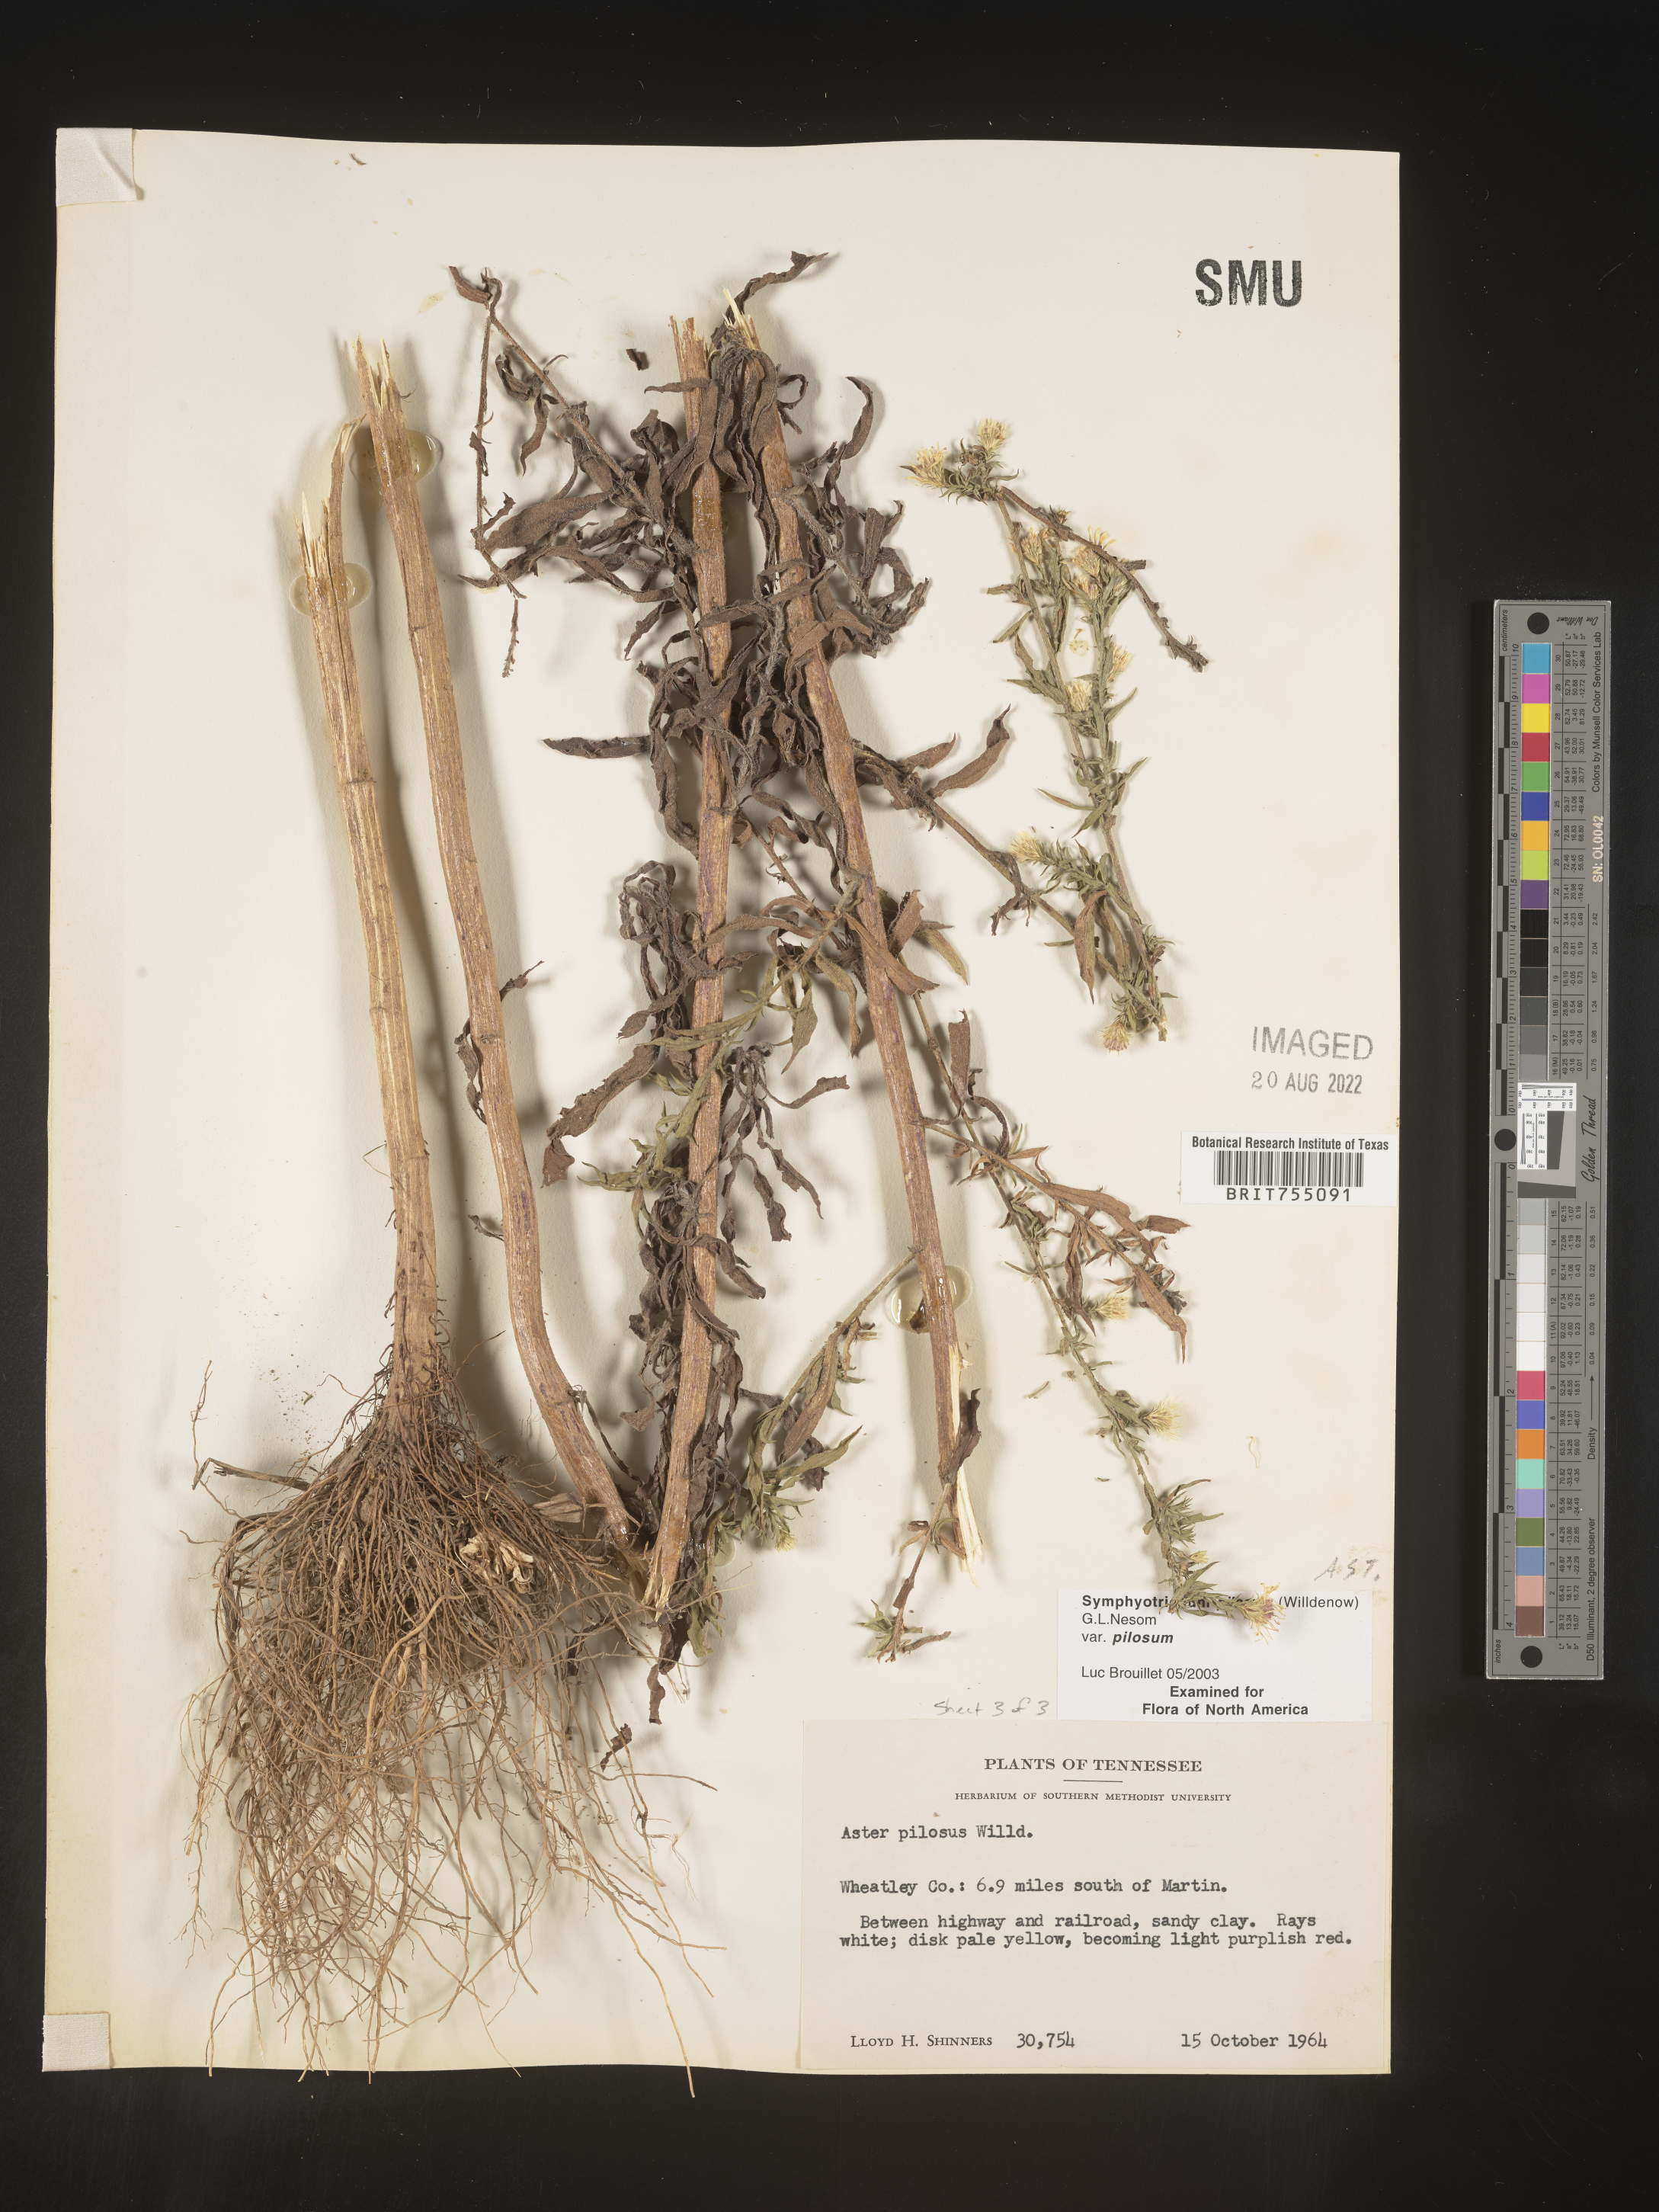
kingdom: Plantae
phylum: Tracheophyta
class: Magnoliopsida
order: Asterales
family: Asteraceae
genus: Symphyotrichum
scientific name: Symphyotrichum pilosum
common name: Awl aster
